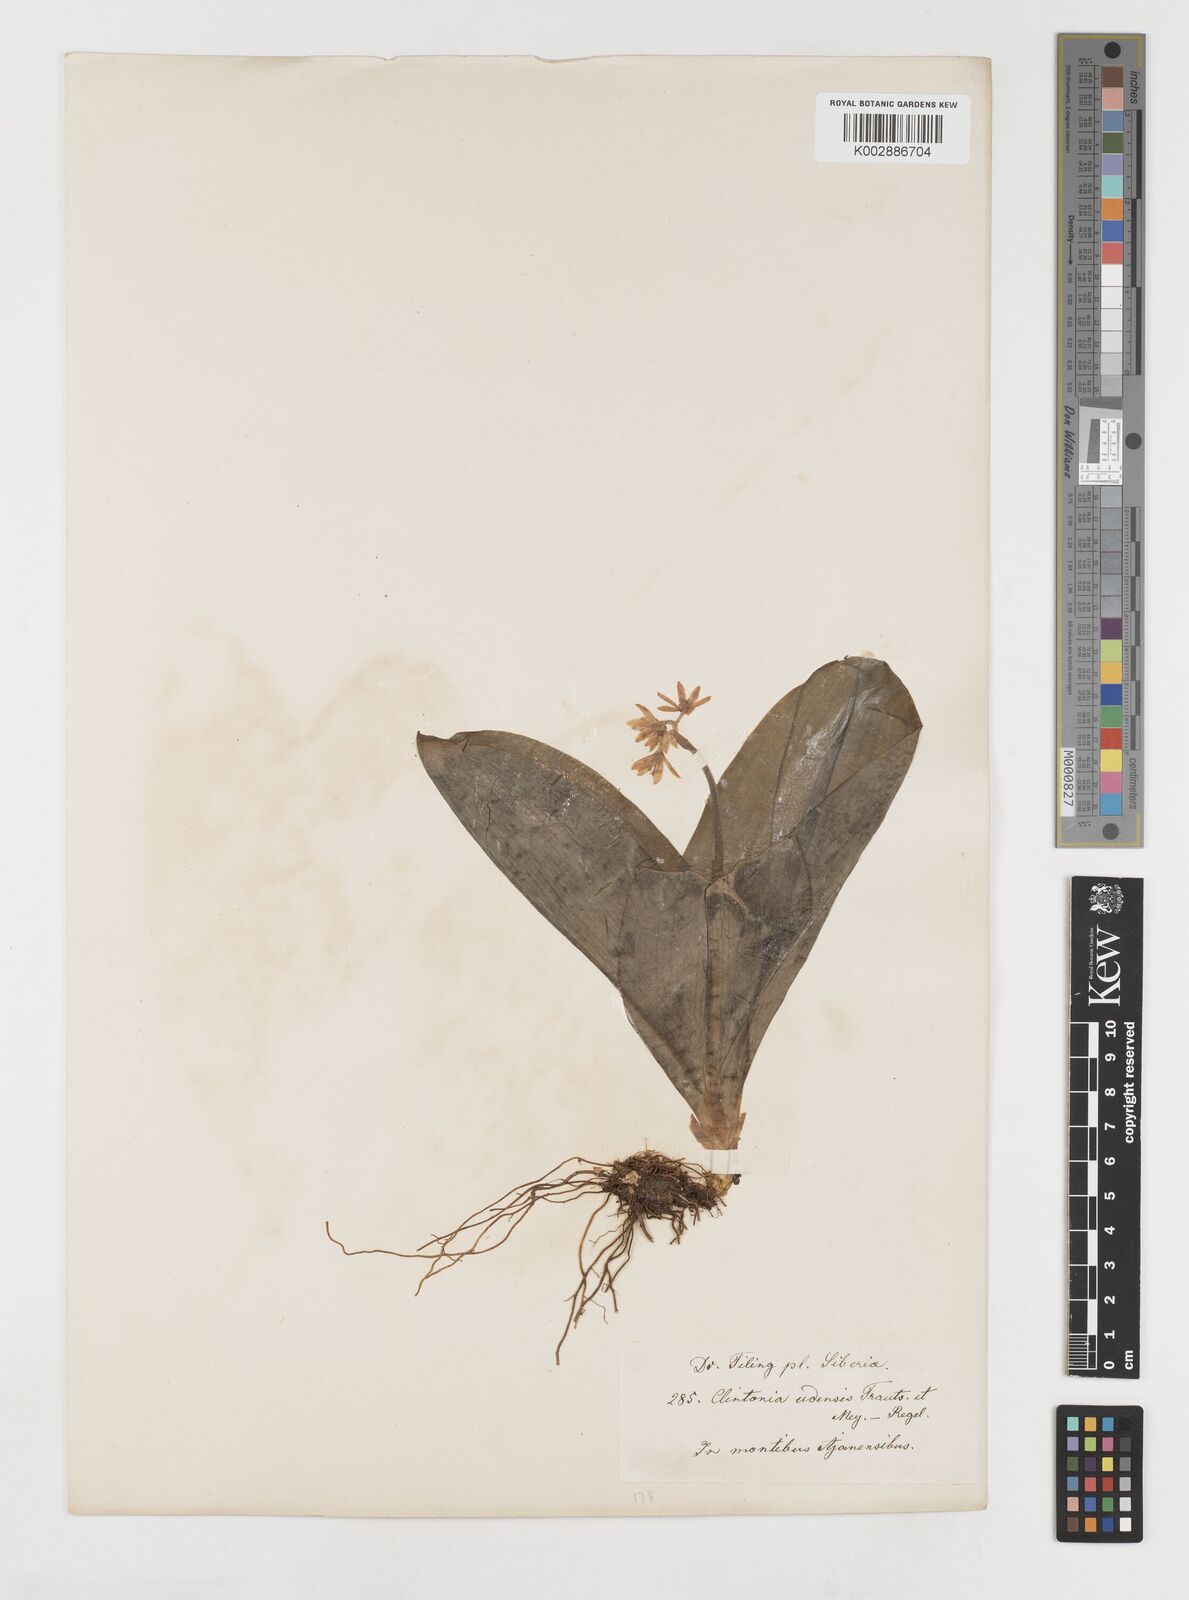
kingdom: Plantae
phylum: Tracheophyta
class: Liliopsida
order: Liliales
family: Liliaceae
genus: Clintonia
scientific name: Clintonia udensis
